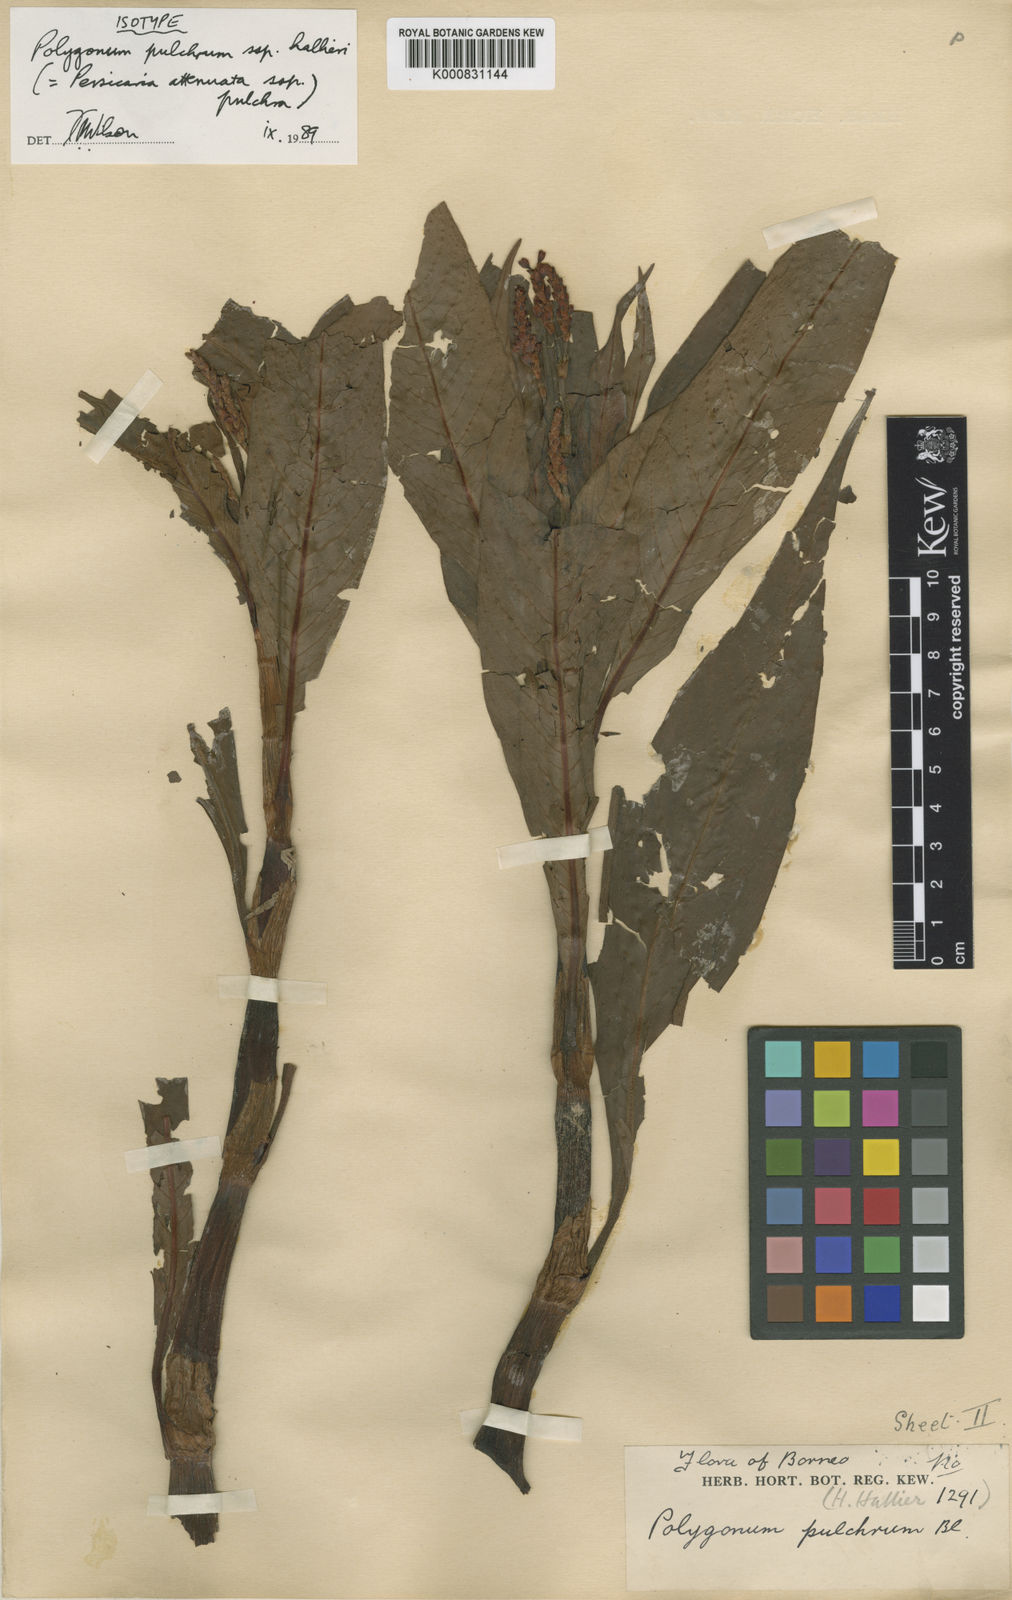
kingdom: Plantae
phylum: Tracheophyta
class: Magnoliopsida
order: Caryophyllales
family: Polygonaceae
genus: Persicaria
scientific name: Persicaria
